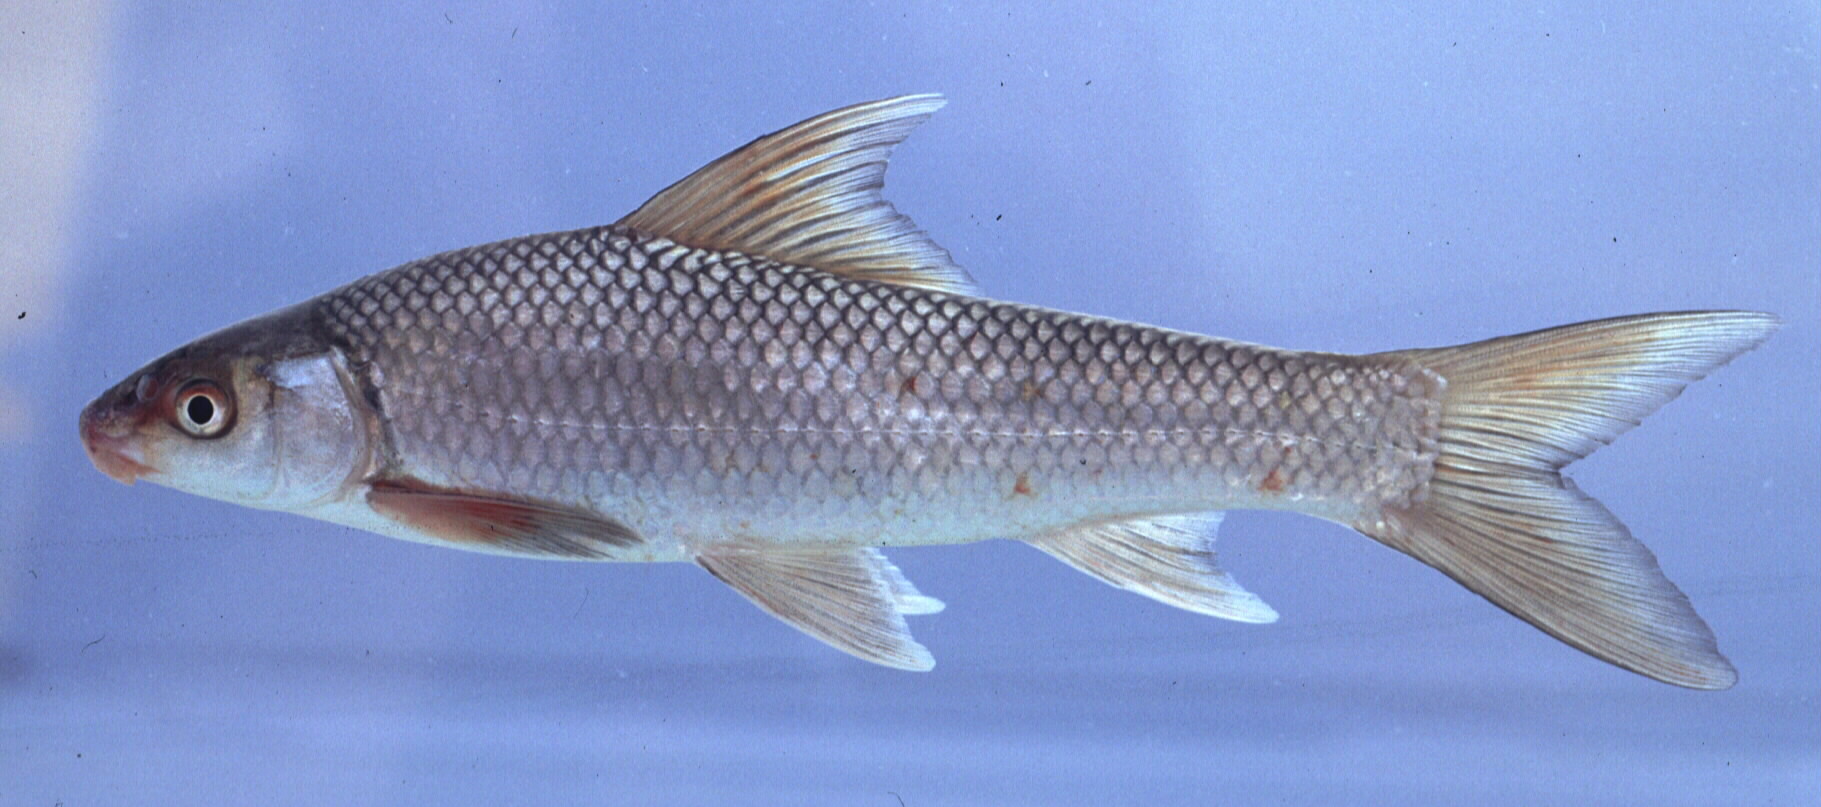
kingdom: Animalia
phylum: Chordata
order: Cypriniformes
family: Cyprinidae
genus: Labeo
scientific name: Labeo ruddi
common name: Silver labeo
